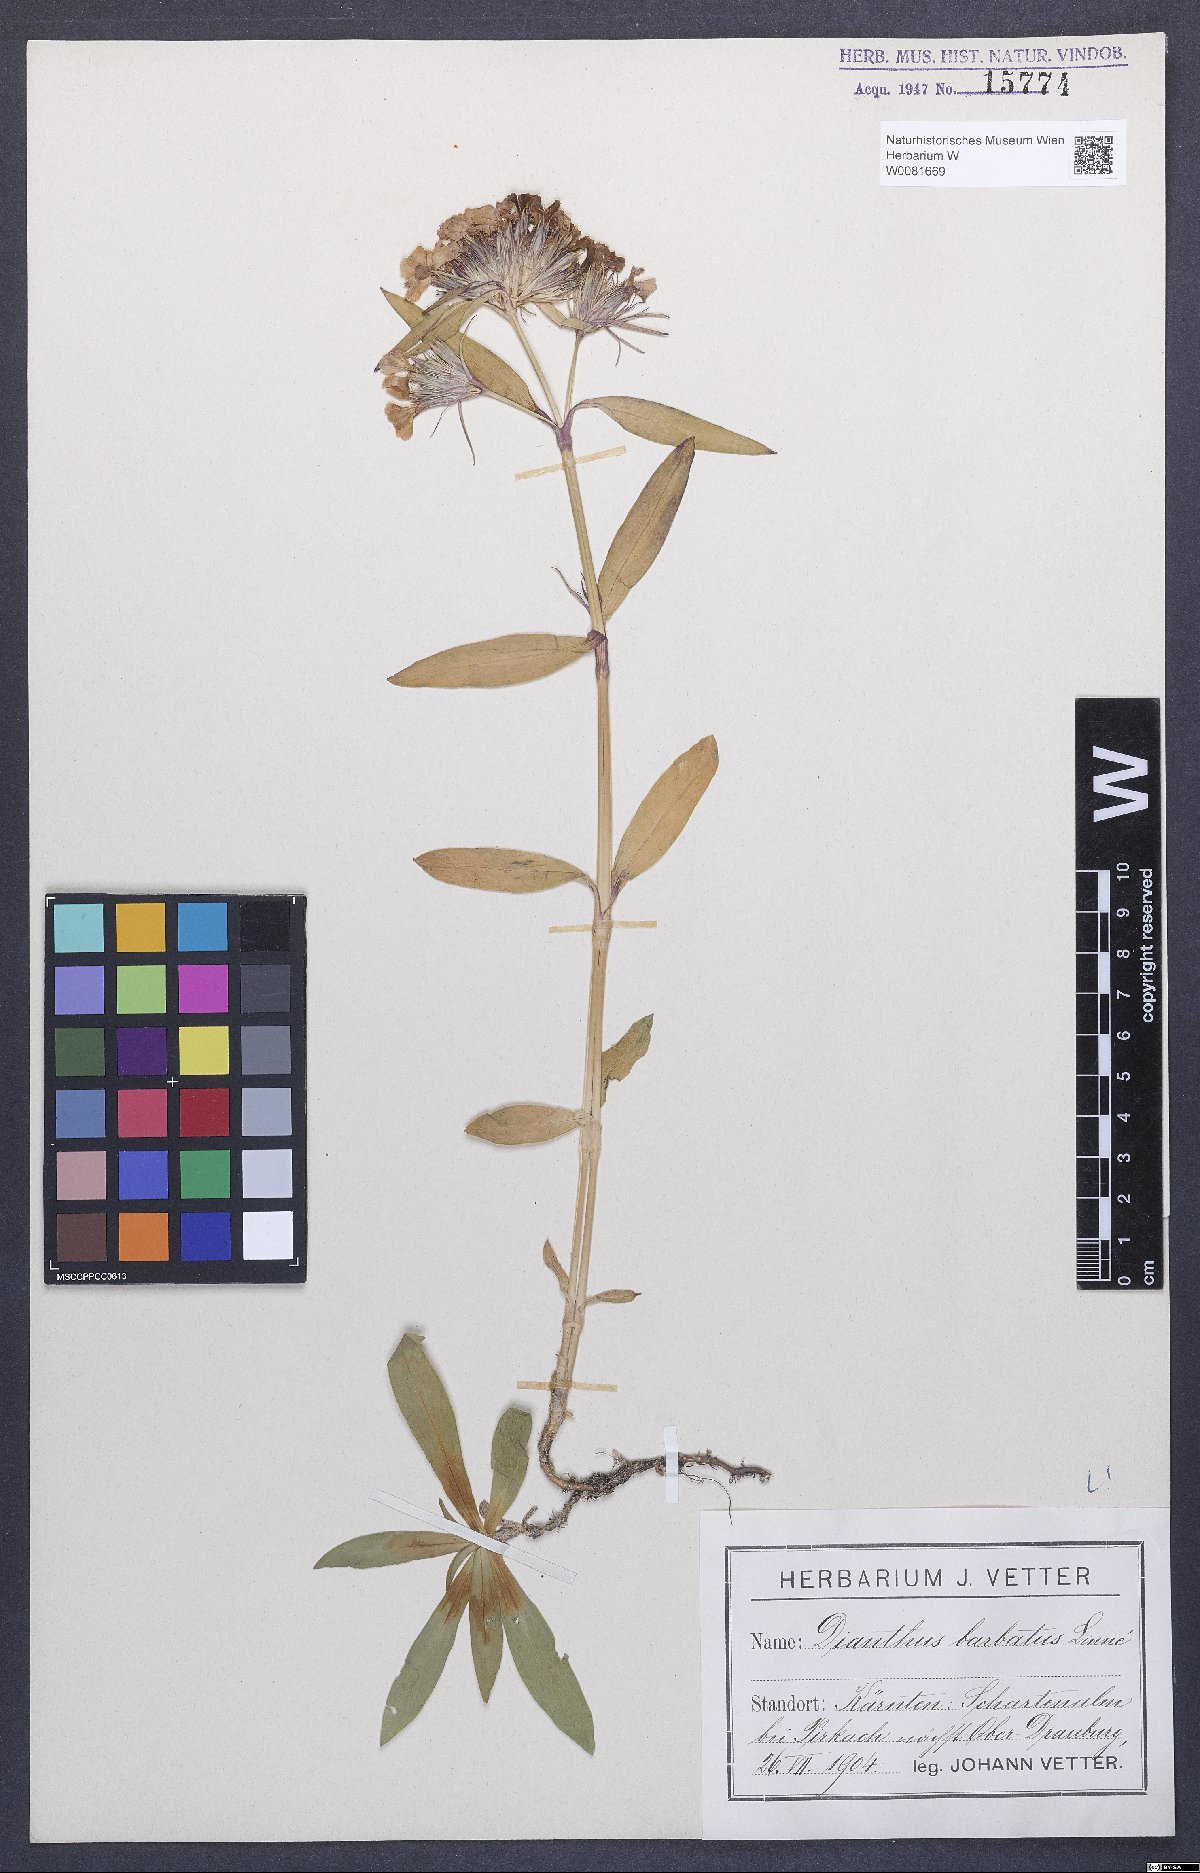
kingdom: Plantae
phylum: Tracheophyta
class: Magnoliopsida
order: Caryophyllales
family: Caryophyllaceae
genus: Dianthus
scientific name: Dianthus barbatus
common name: Sweet-william
